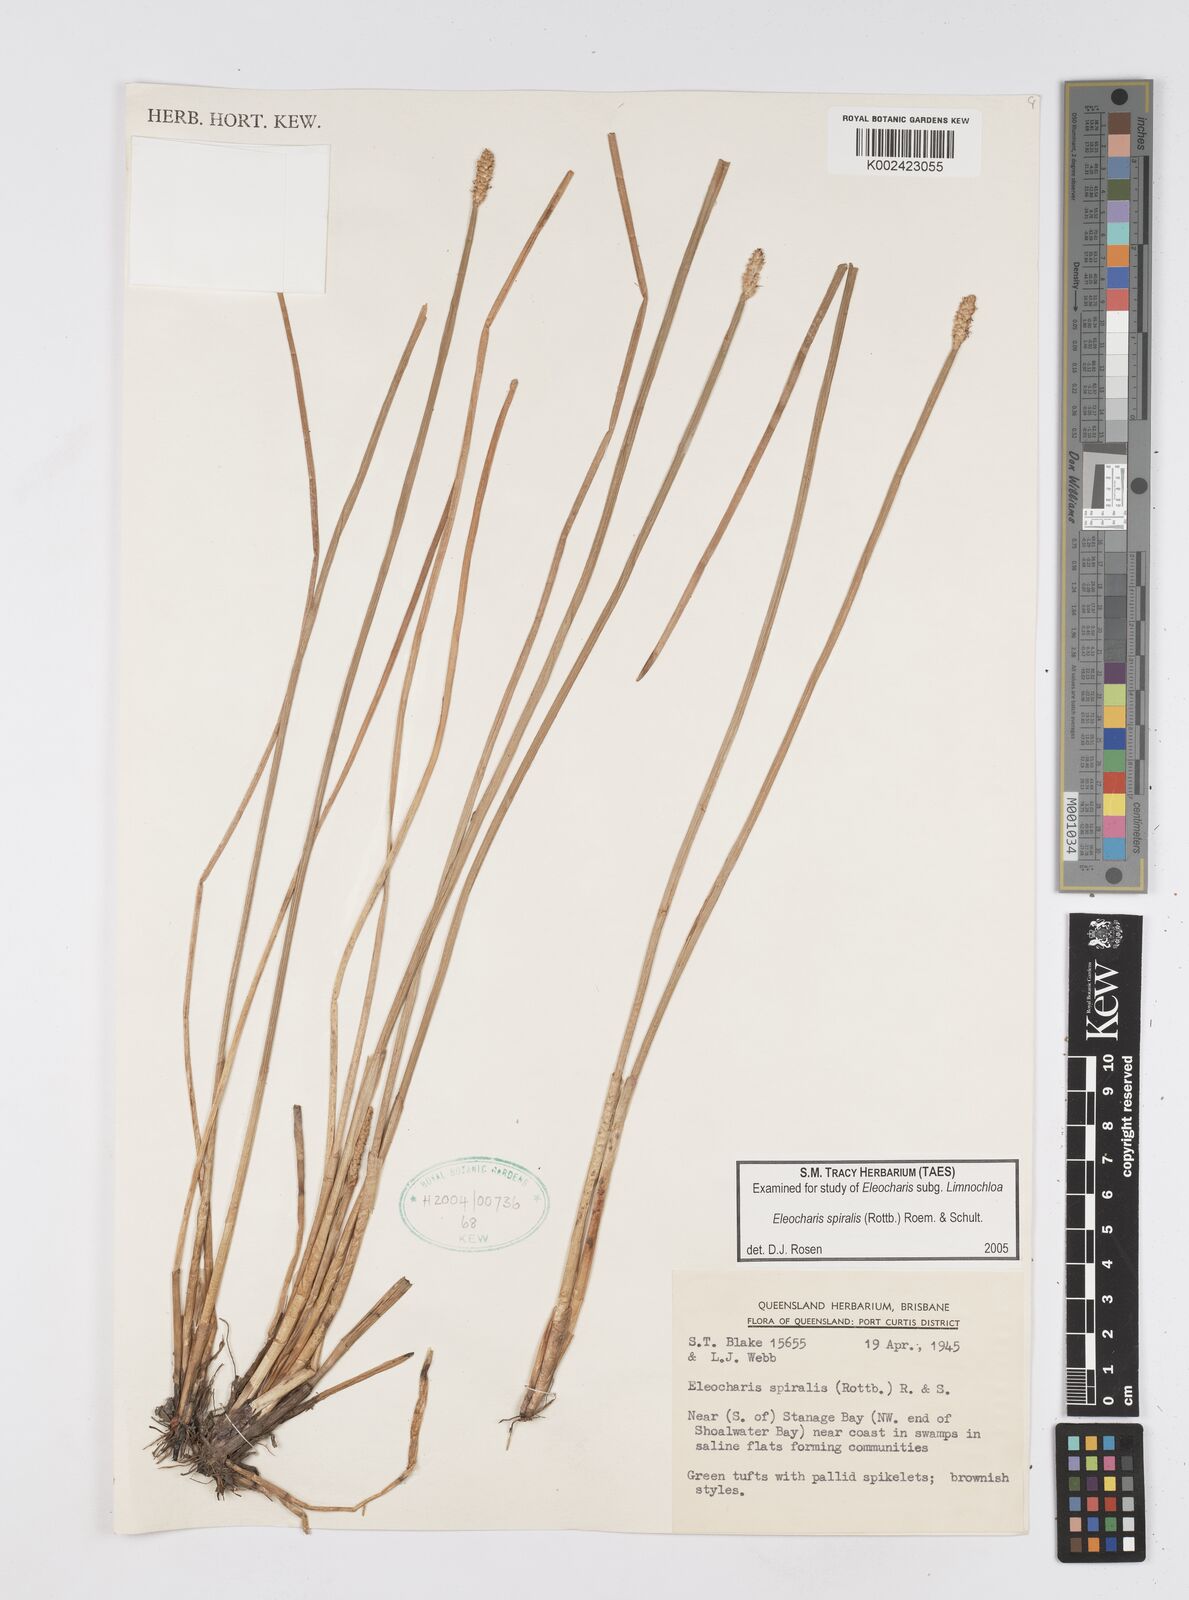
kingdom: Plantae
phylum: Tracheophyta
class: Liliopsida
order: Poales
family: Cyperaceae
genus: Eleocharis
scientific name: Eleocharis spiralis
